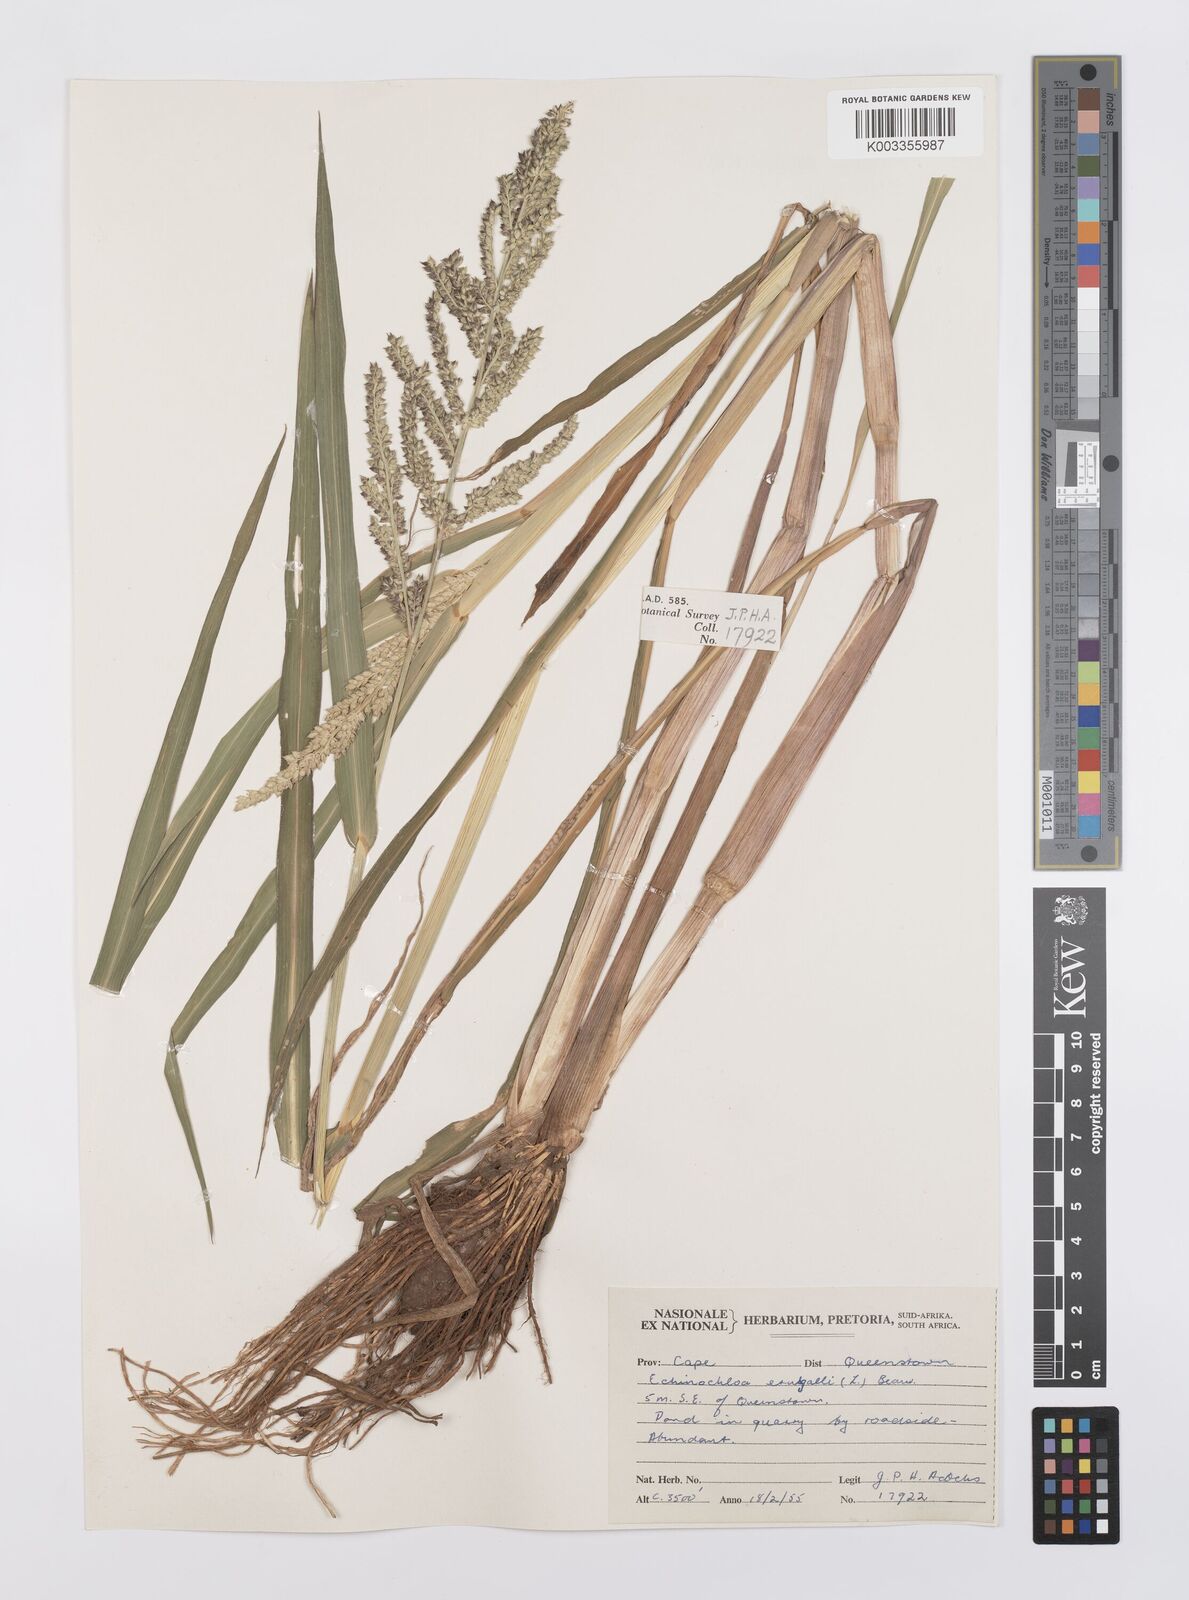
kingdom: Plantae
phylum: Tracheophyta
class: Liliopsida
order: Poales
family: Poaceae
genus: Echinochloa
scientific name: Echinochloa crus-galli
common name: Cockspur
